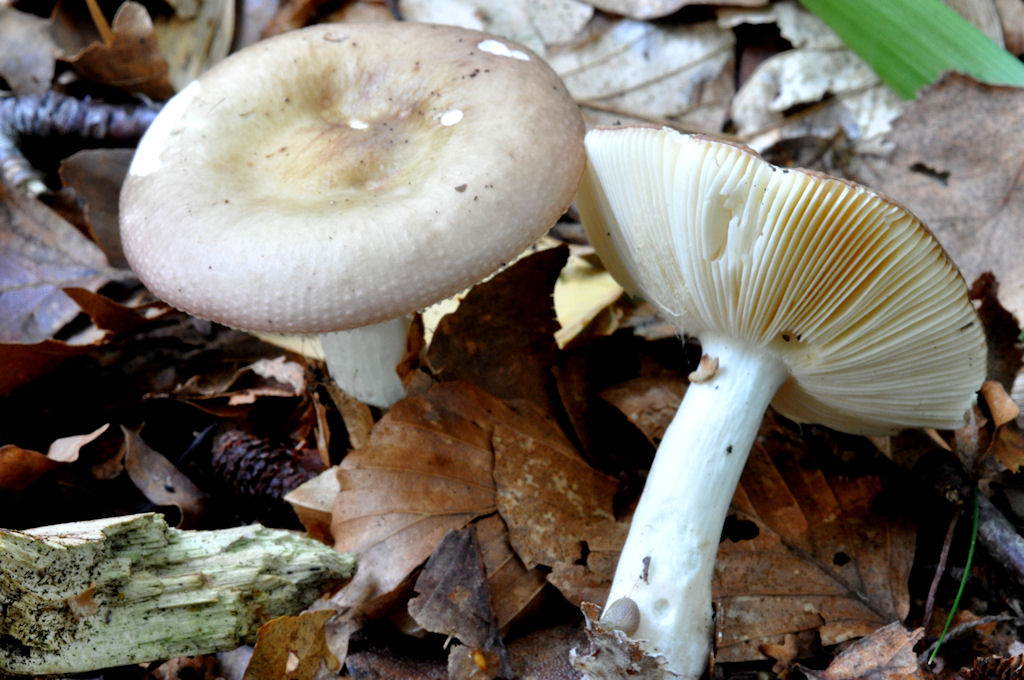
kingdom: Fungi
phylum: Basidiomycota
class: Agaricomycetes
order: Russulales
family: Russulaceae
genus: Russula
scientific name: Russula gracillima
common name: slank skørhat
